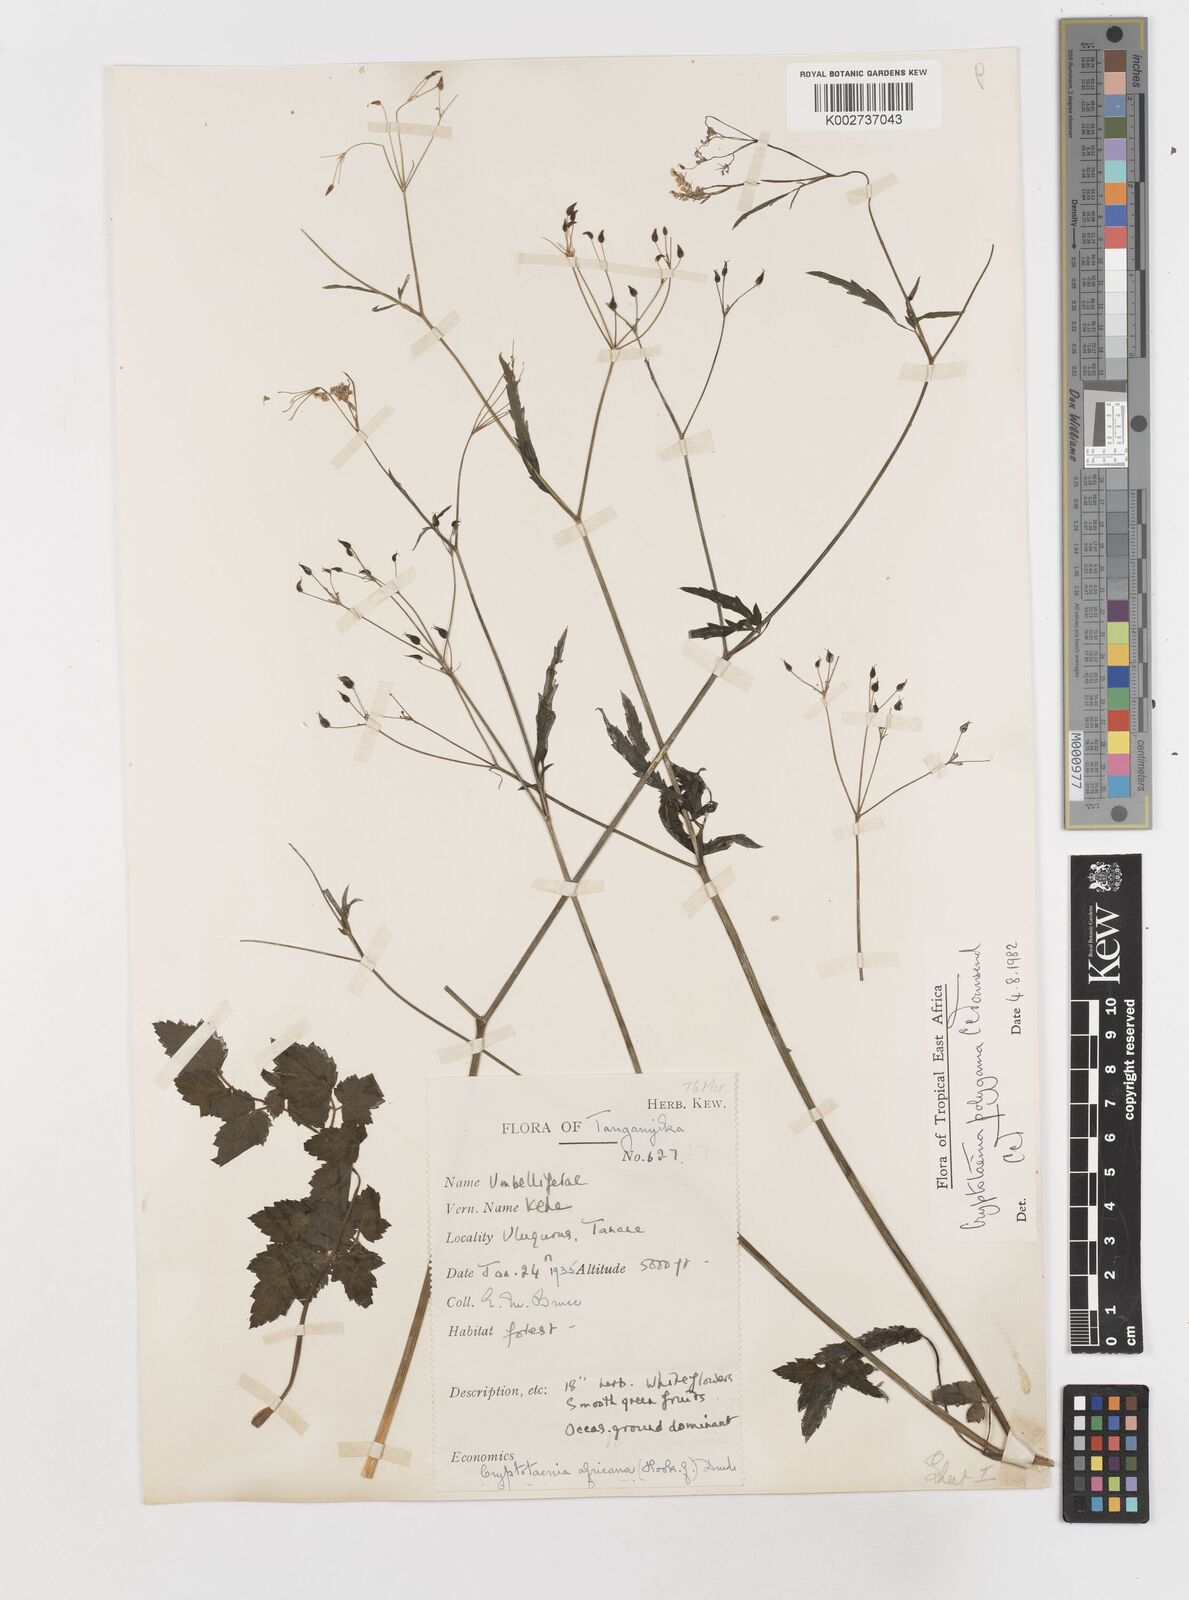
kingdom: Plantae
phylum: Tracheophyta
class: Magnoliopsida
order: Apiales
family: Apiaceae
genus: Cryptotaenia
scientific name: Cryptotaenia polygama
